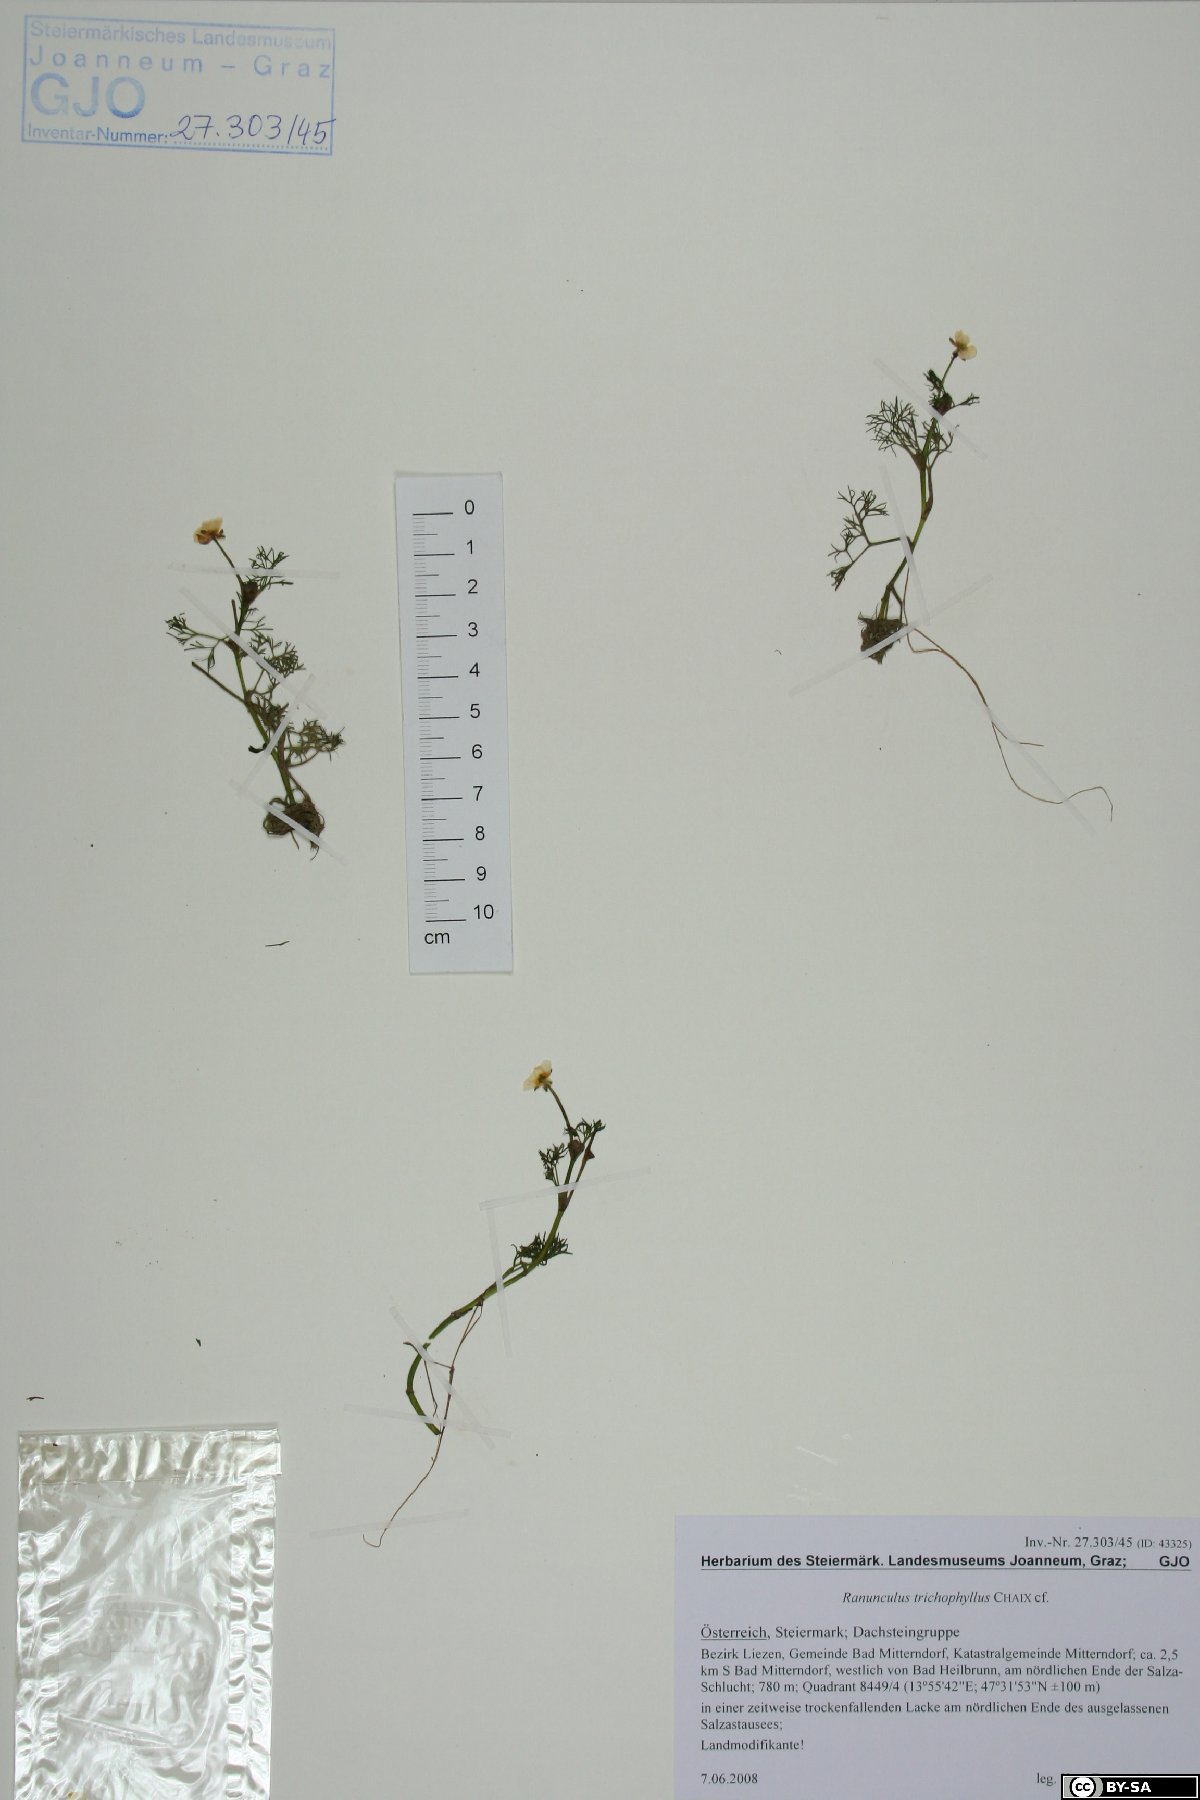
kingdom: Plantae
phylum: Tracheophyta
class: Magnoliopsida
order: Ranunculales
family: Ranunculaceae
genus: Ranunculus
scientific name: Ranunculus trichophyllus
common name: Thread-leaved water-crowfoot
